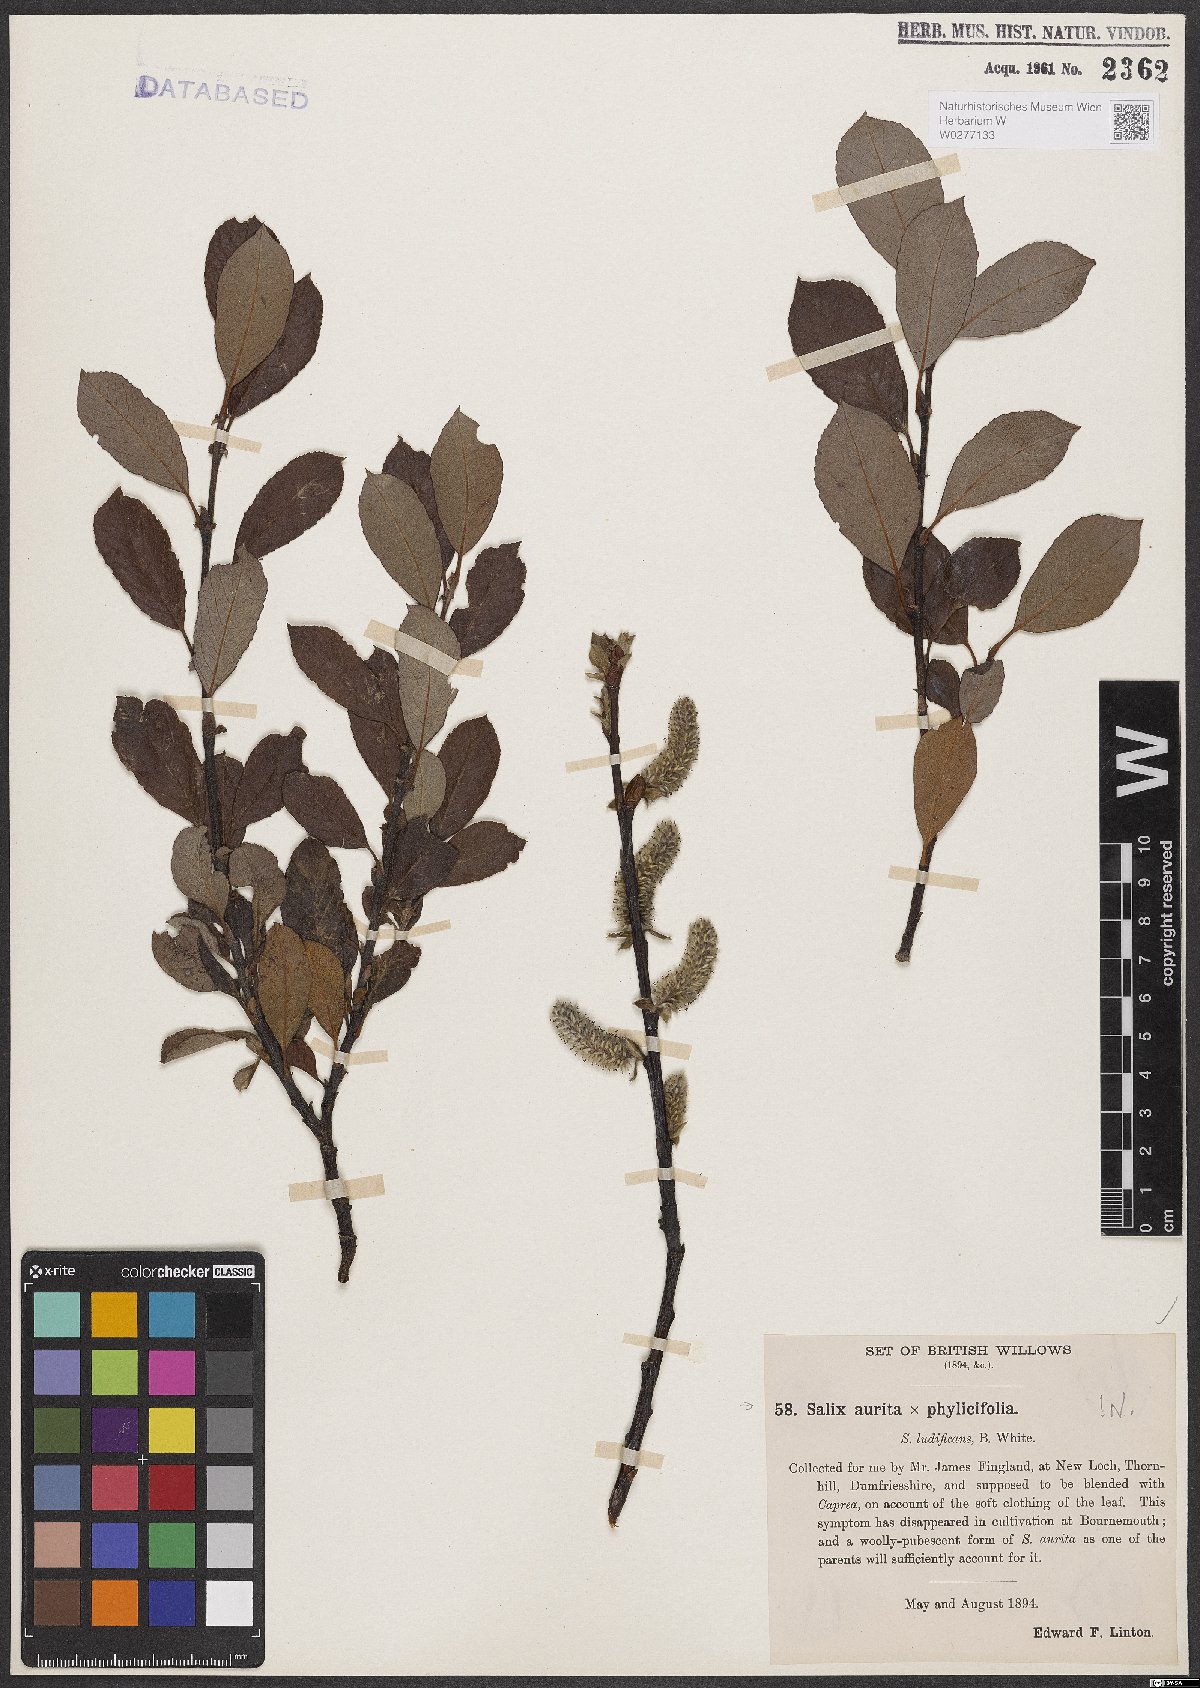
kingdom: Plantae
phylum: Tracheophyta
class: Magnoliopsida
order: Malpighiales
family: Salicaceae
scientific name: Salicaceae
